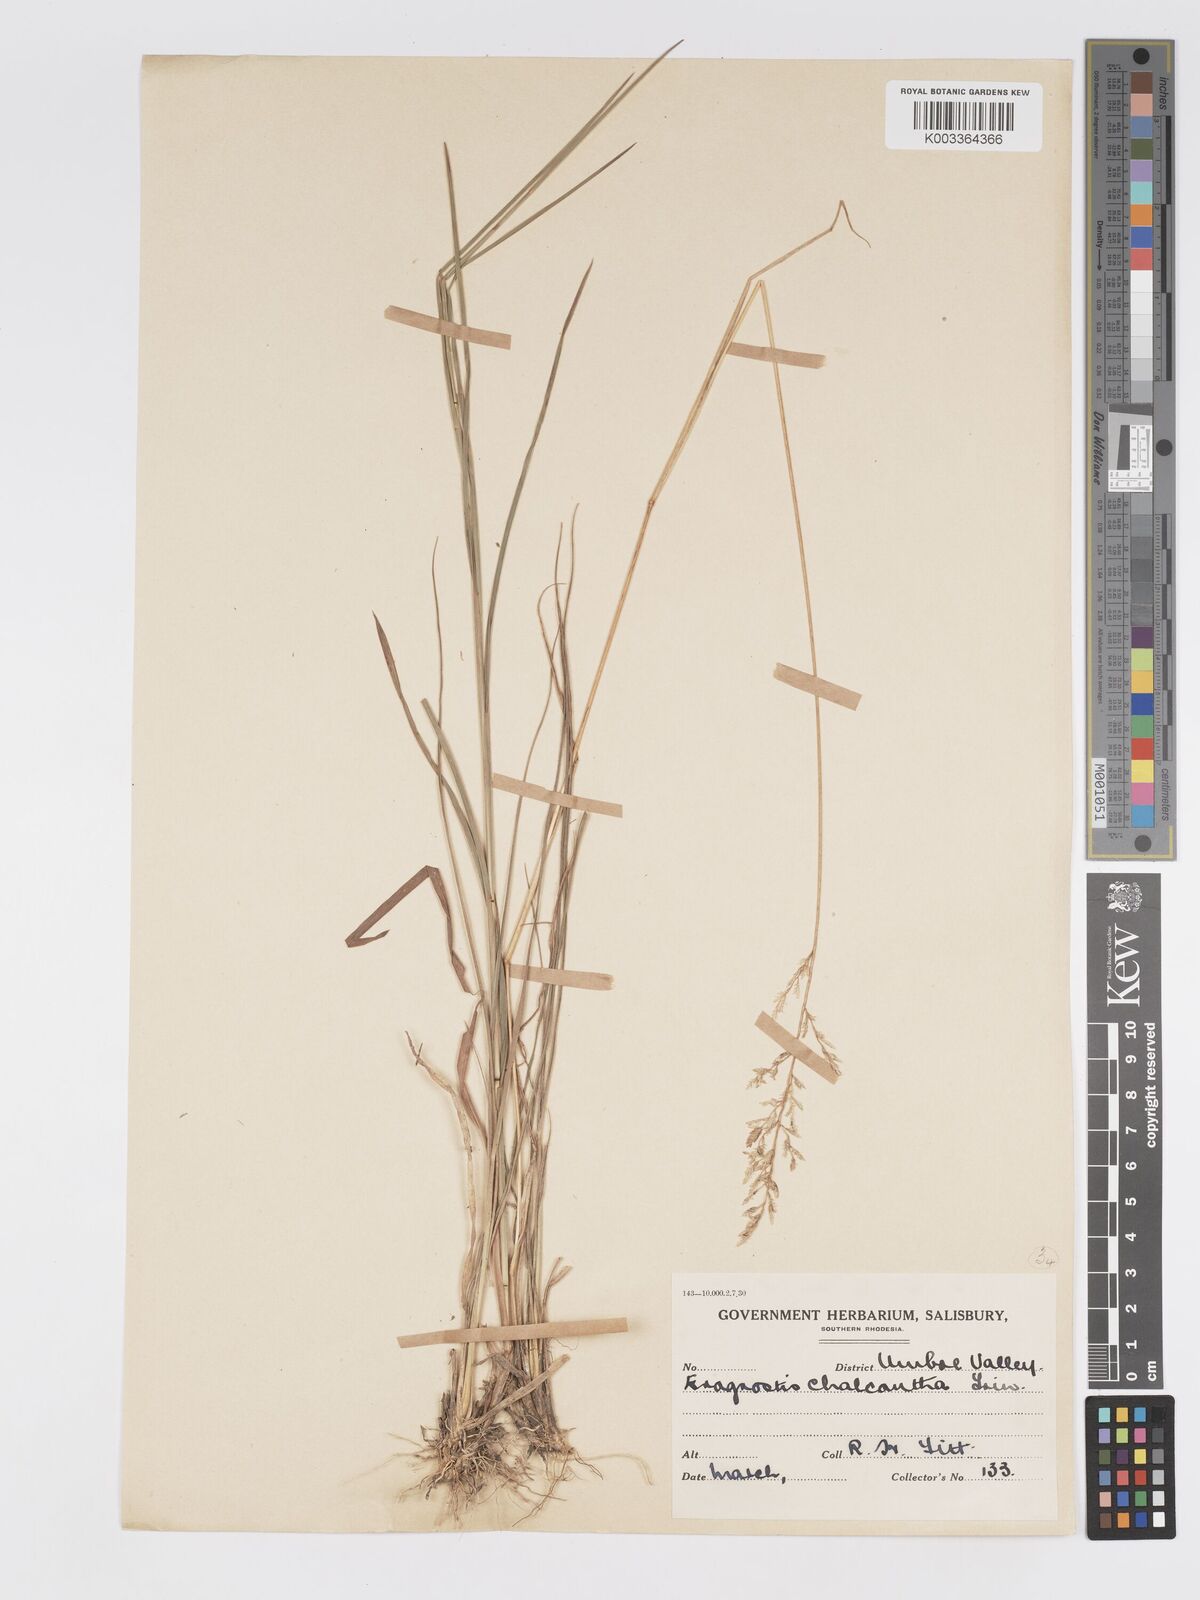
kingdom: Plantae
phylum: Tracheophyta
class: Liliopsida
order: Poales
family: Poaceae
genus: Eragrostis
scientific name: Eragrostis racemosa
